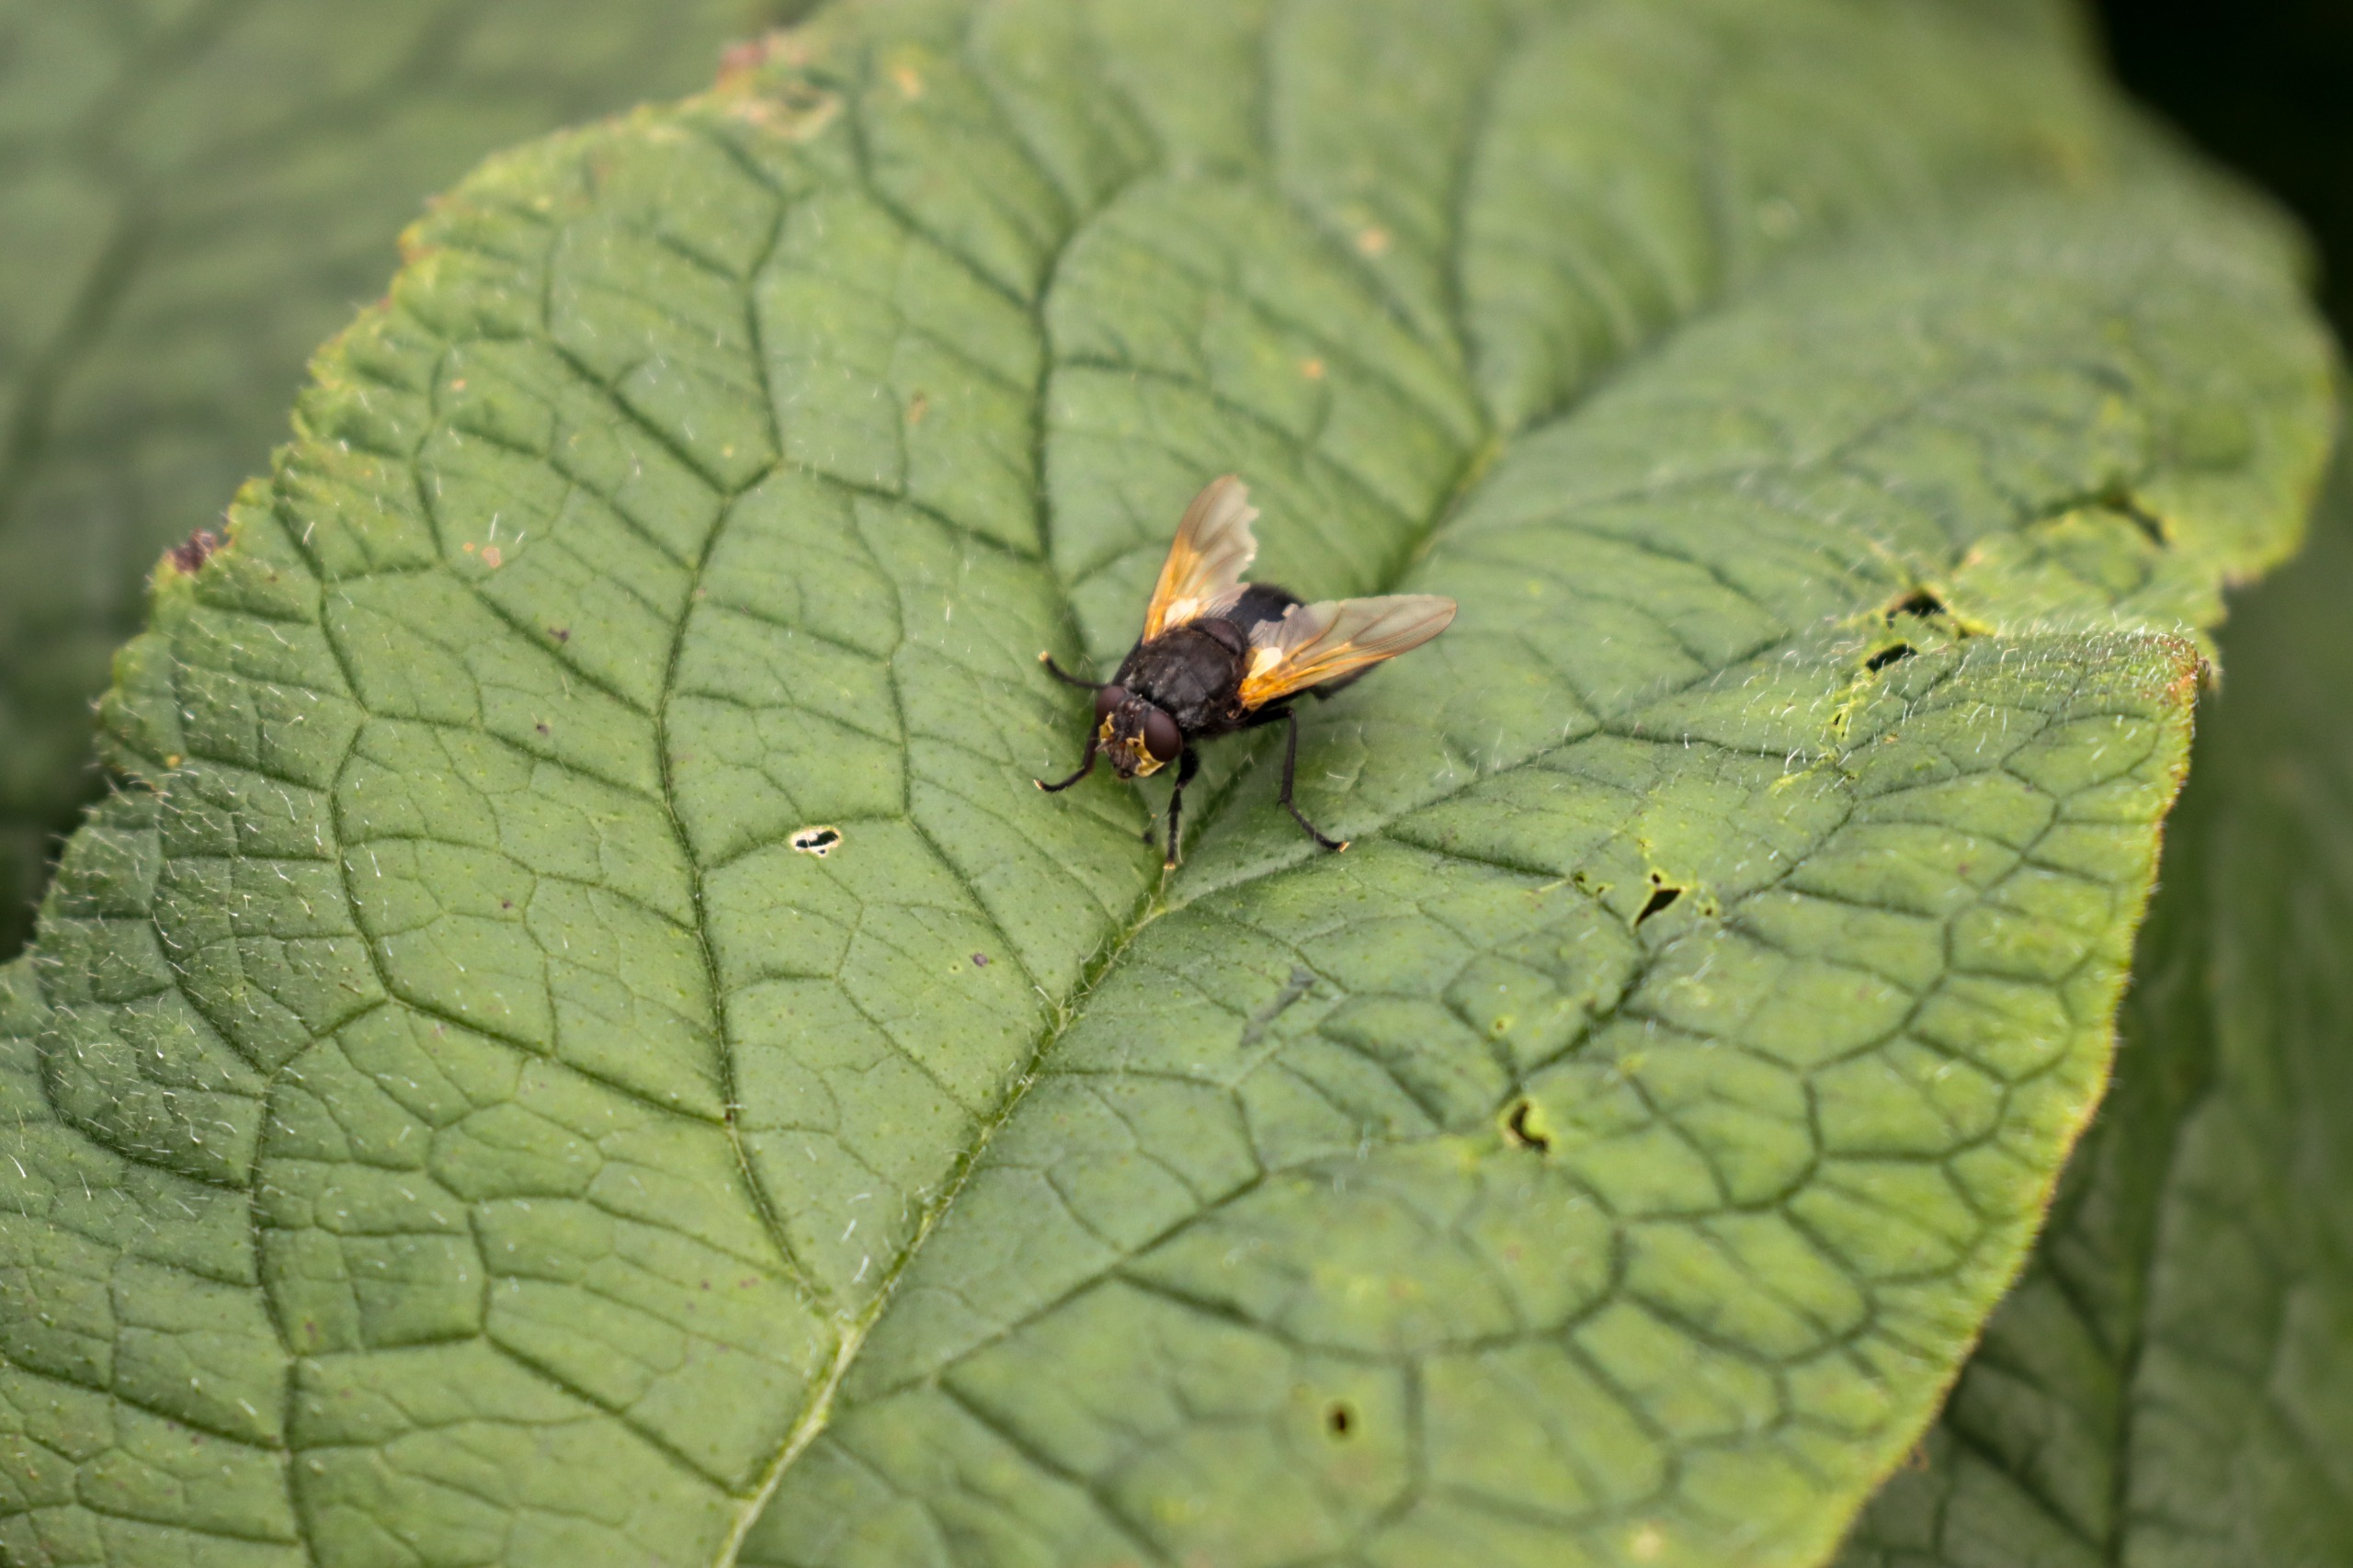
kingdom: Animalia
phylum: Arthropoda
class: Insecta
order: Diptera
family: Muscidae
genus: Mesembrina
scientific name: Mesembrina meridiana
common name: Gulvinget flue
